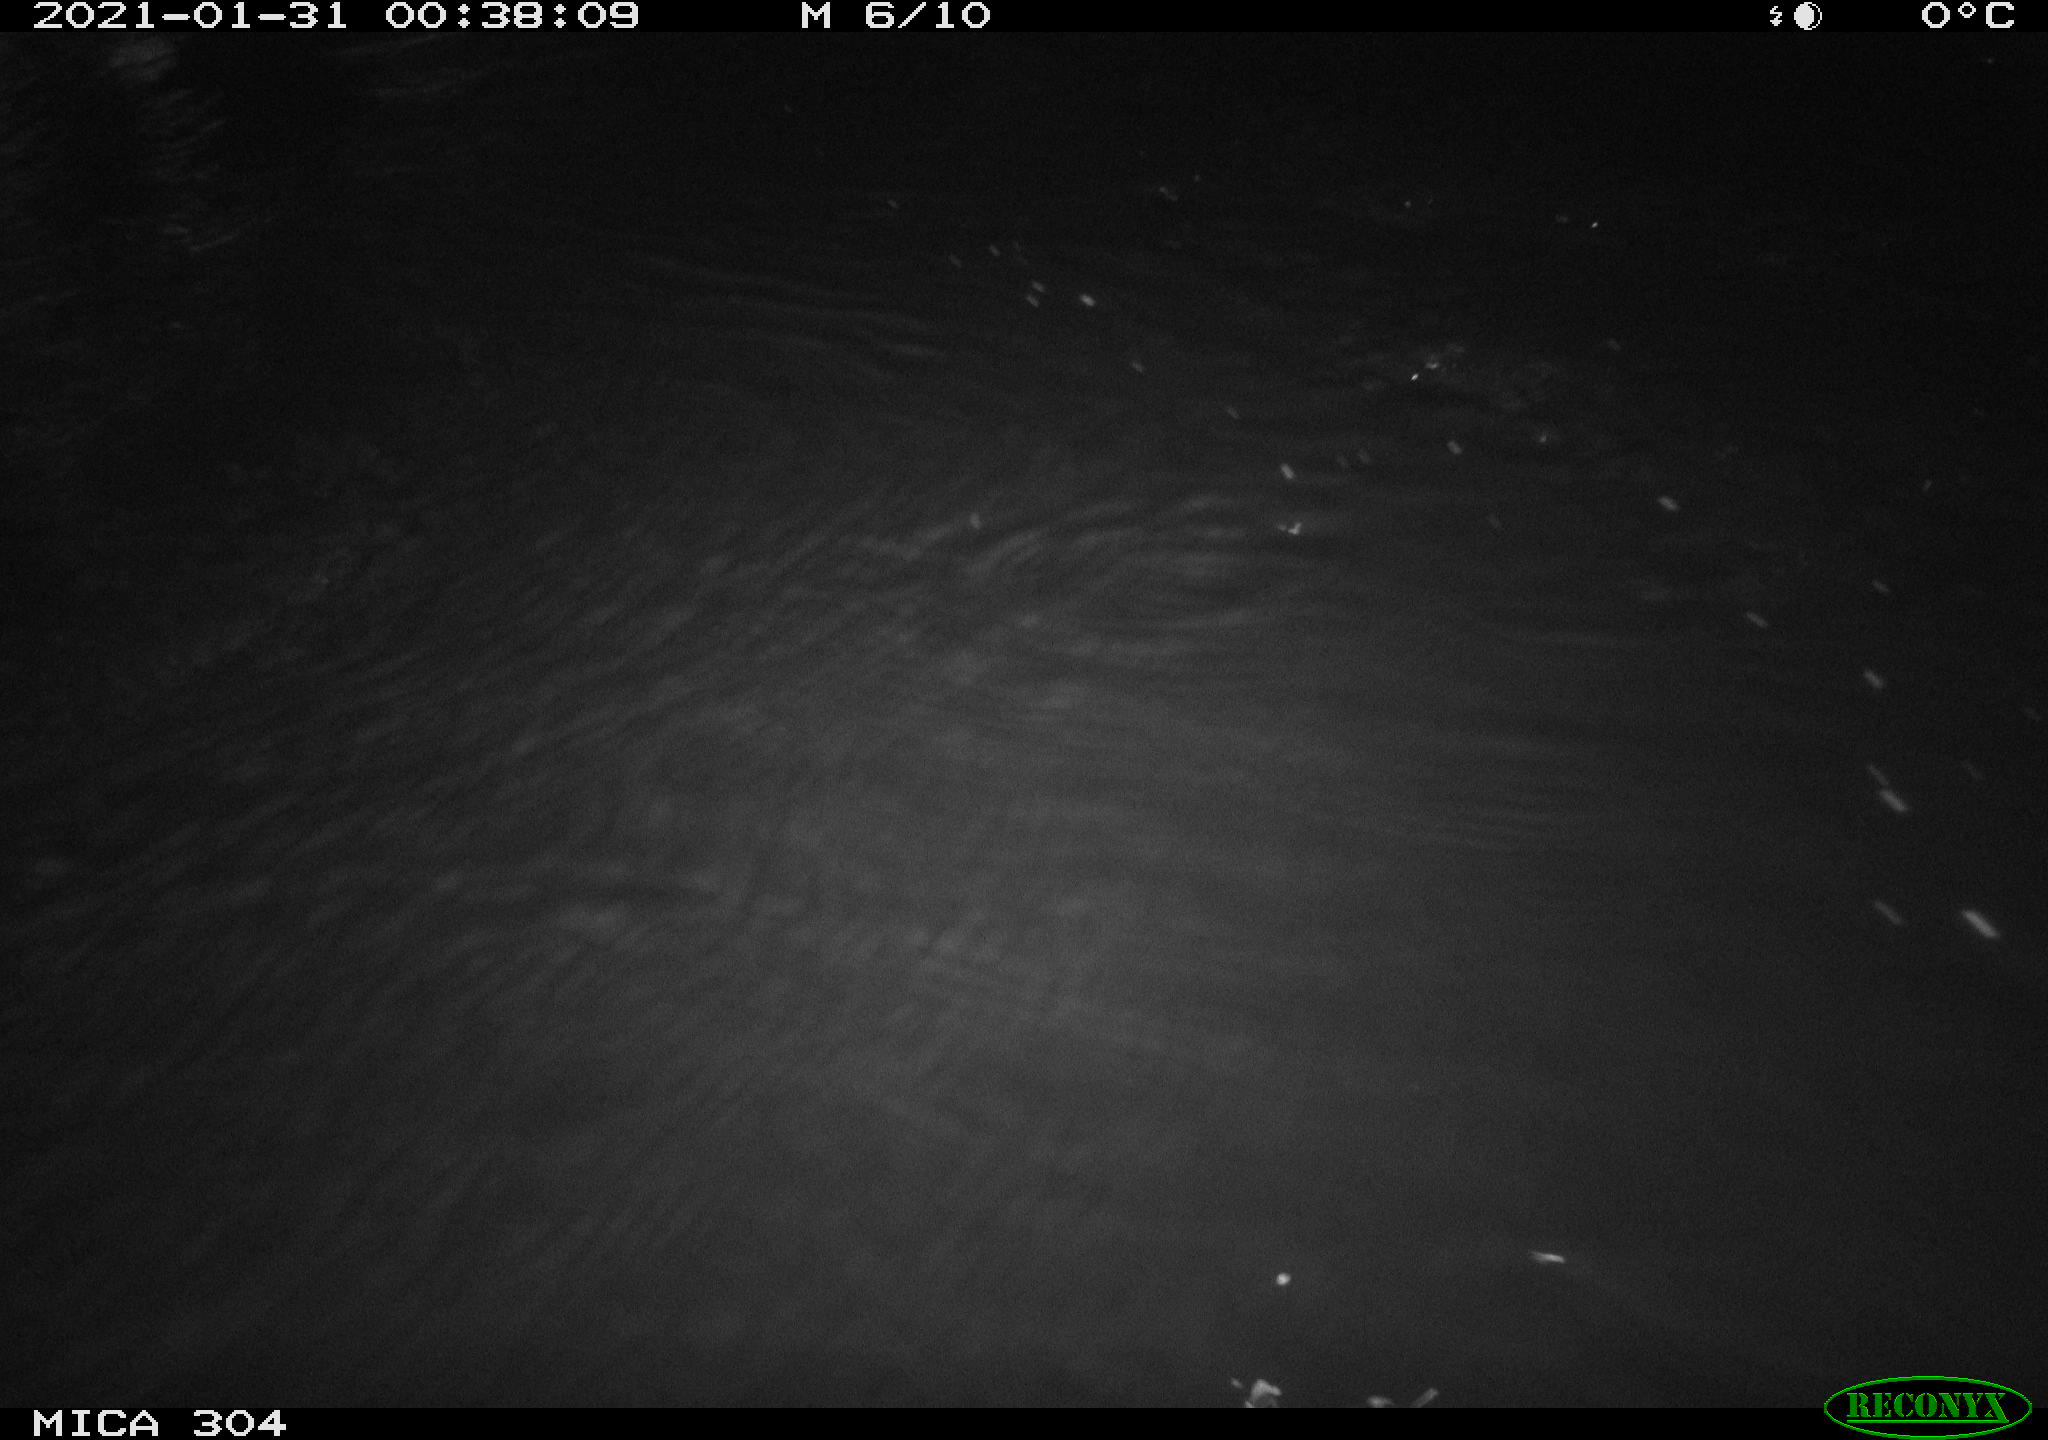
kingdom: Animalia
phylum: Chordata
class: Mammalia
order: Rodentia
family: Muridae
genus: Rattus
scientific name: Rattus norvegicus
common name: Brown rat
